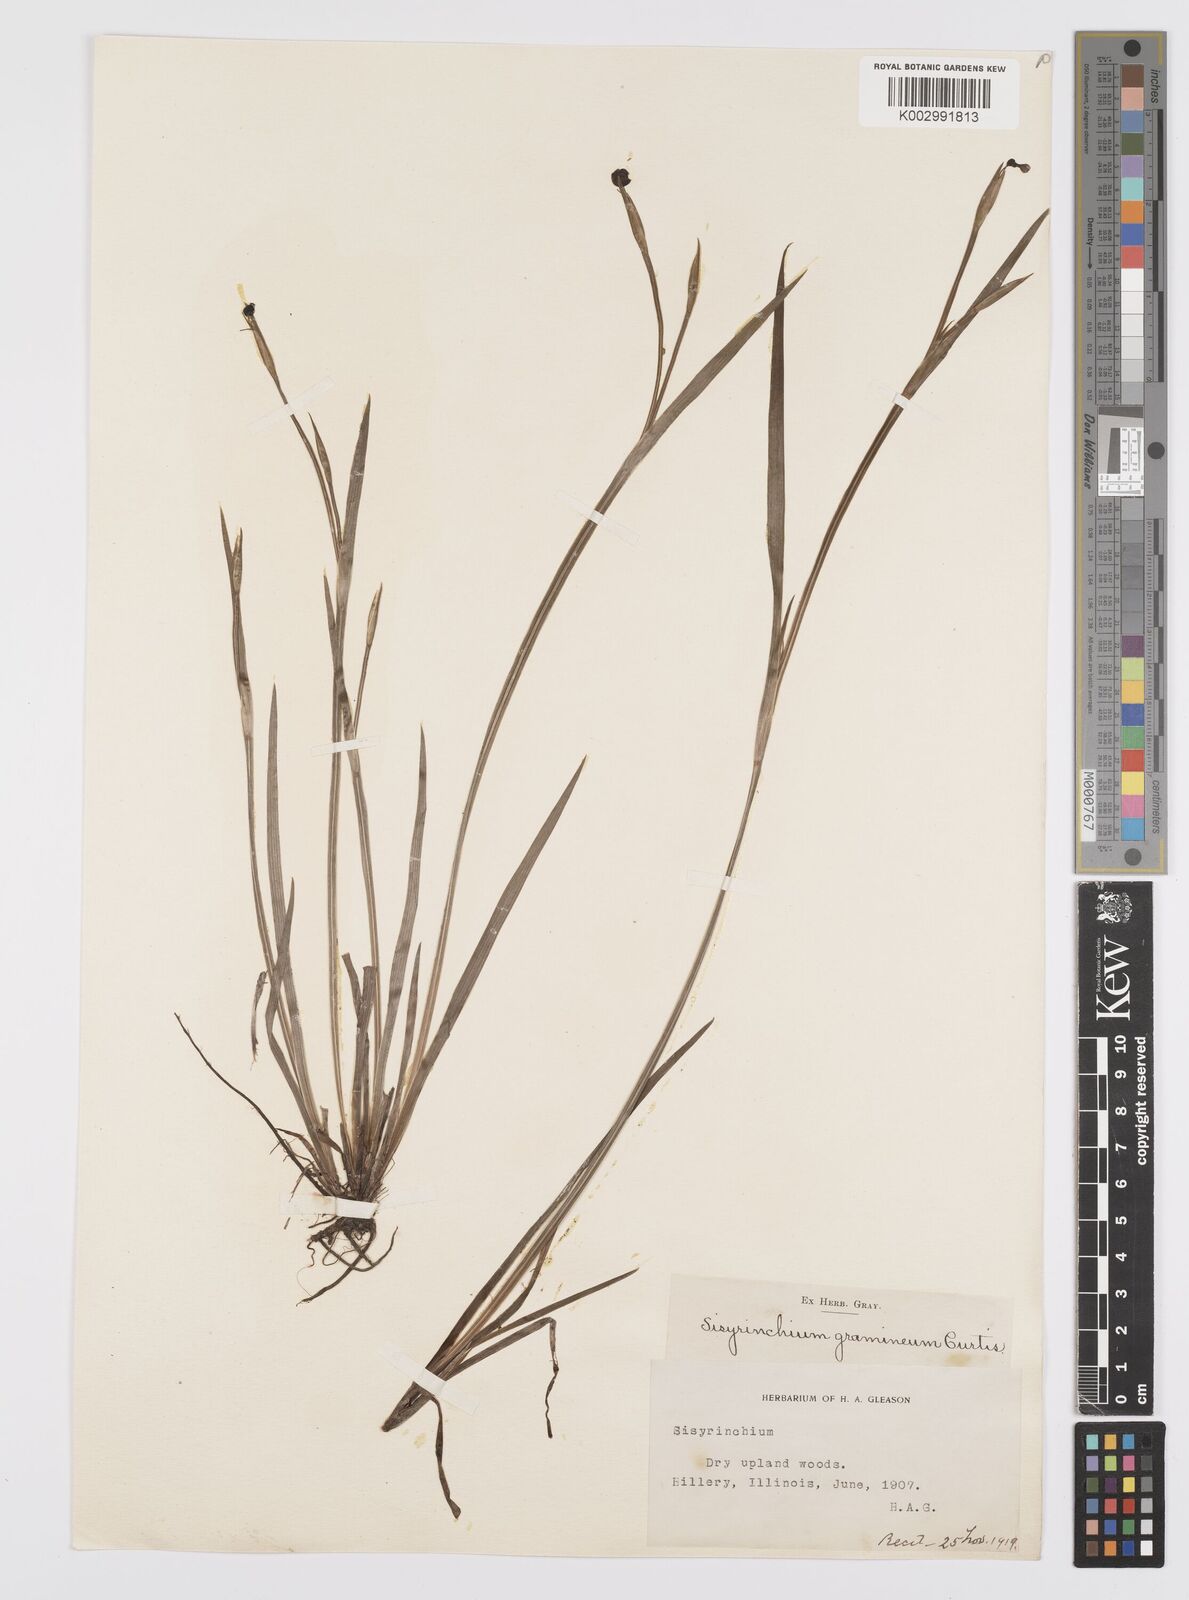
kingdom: Plantae
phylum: Tracheophyta
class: Liliopsida
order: Asparagales
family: Iridaceae
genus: Sisyrinchium
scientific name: Sisyrinchium bermudiana
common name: Blue-eyed-grass
